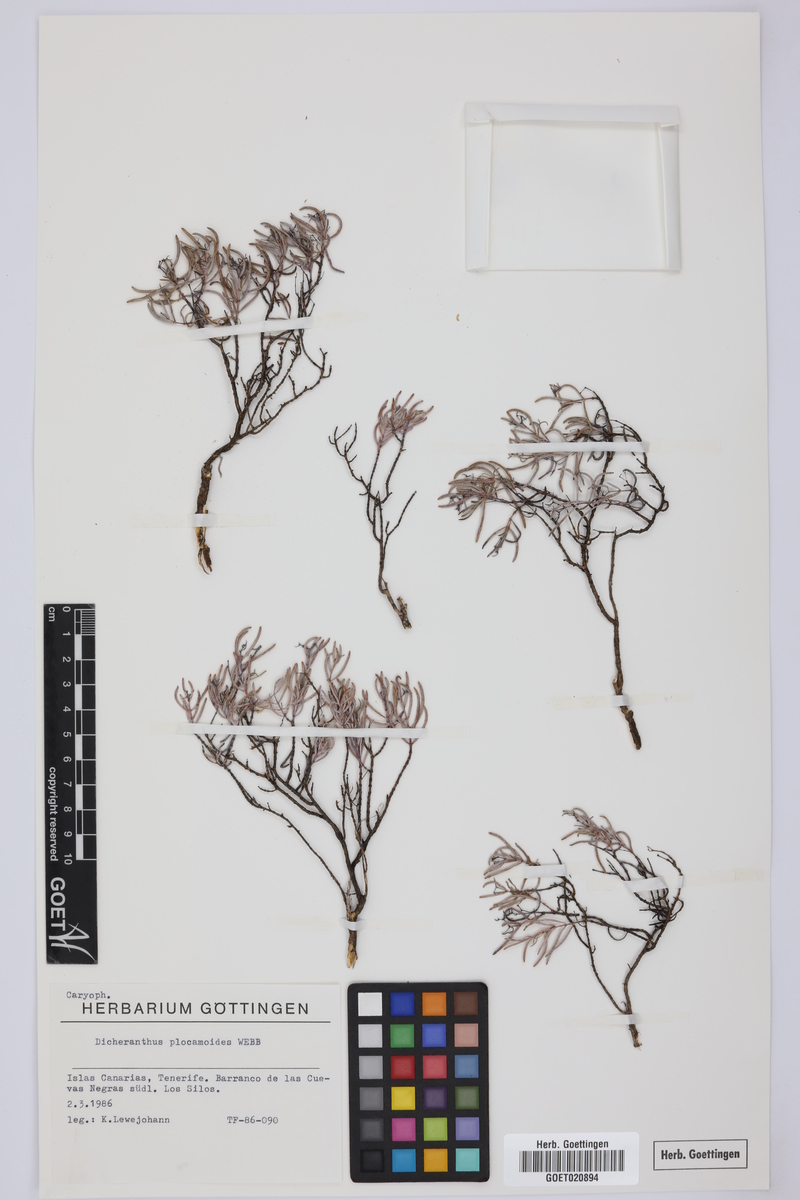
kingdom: Plantae
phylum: Tracheophyta
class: Magnoliopsida
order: Caryophyllales
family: Caryophyllaceae
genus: Dicheranthus
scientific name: Dicheranthus plocamoides
